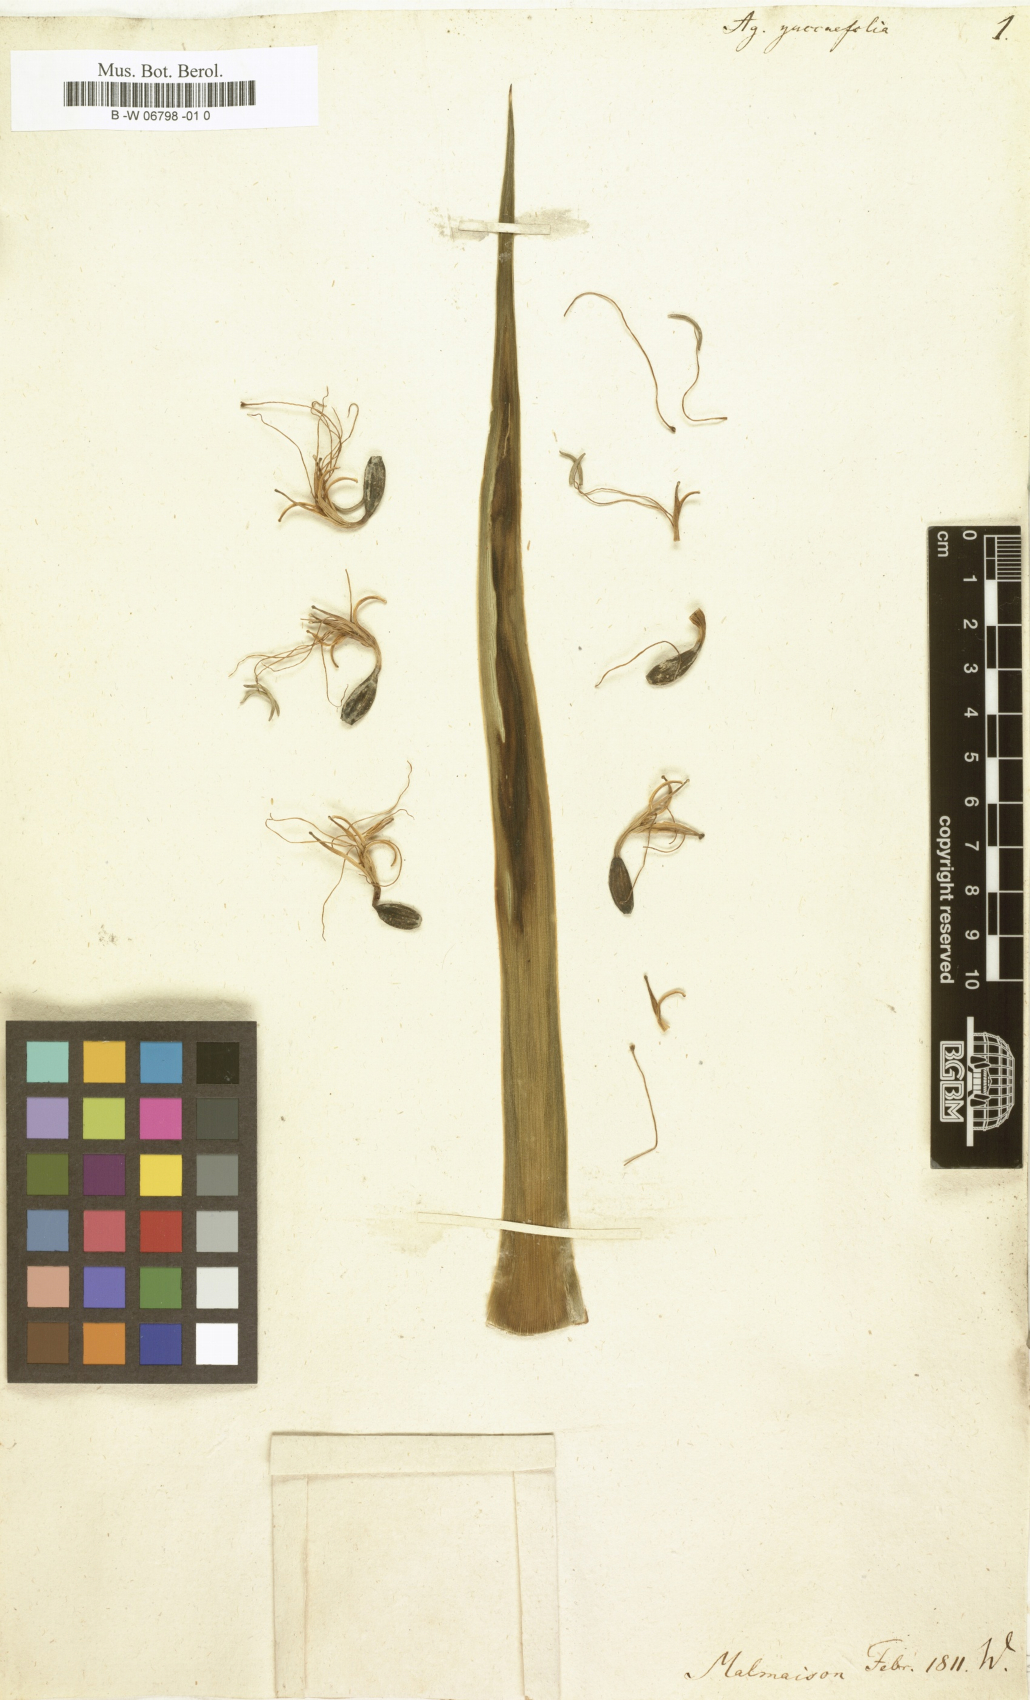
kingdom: Plantae
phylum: Tracheophyta
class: Liliopsida
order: Asparagales
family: Asparagaceae
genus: Agave
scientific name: Agave spicata
